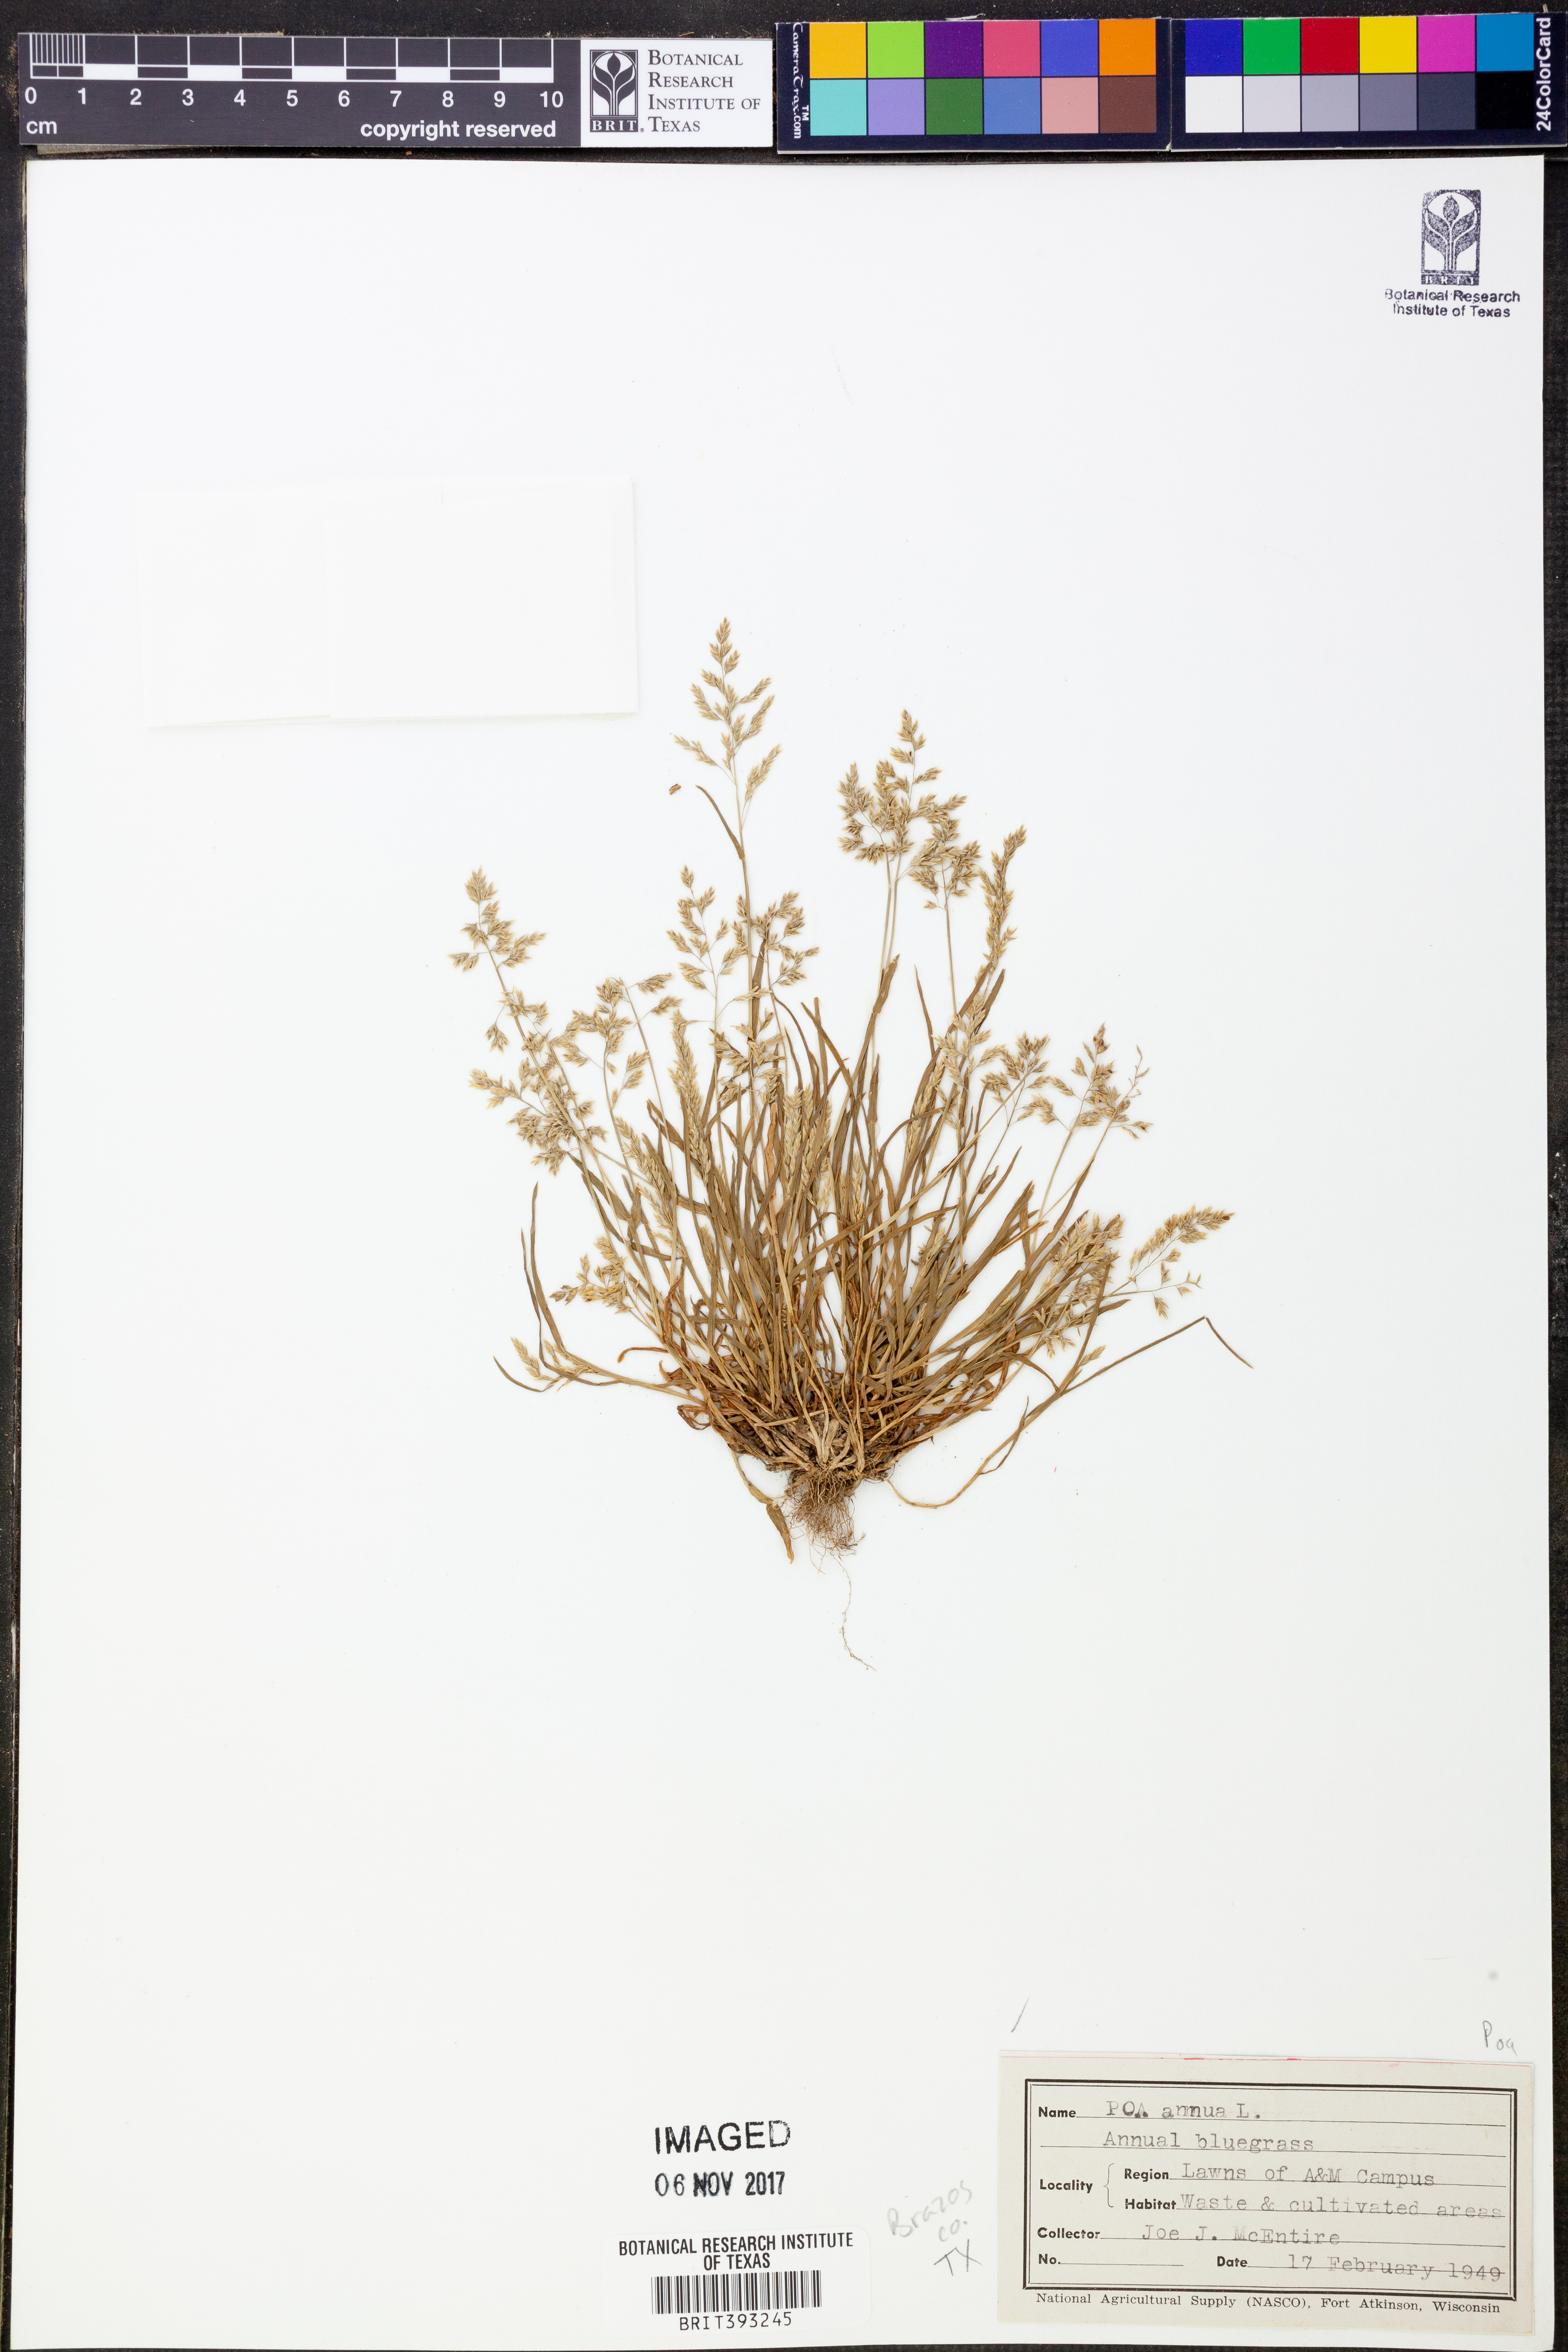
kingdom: Plantae
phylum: Tracheophyta
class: Liliopsida
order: Poales
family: Poaceae
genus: Poa
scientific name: Poa annua
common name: Annual bluegrass
